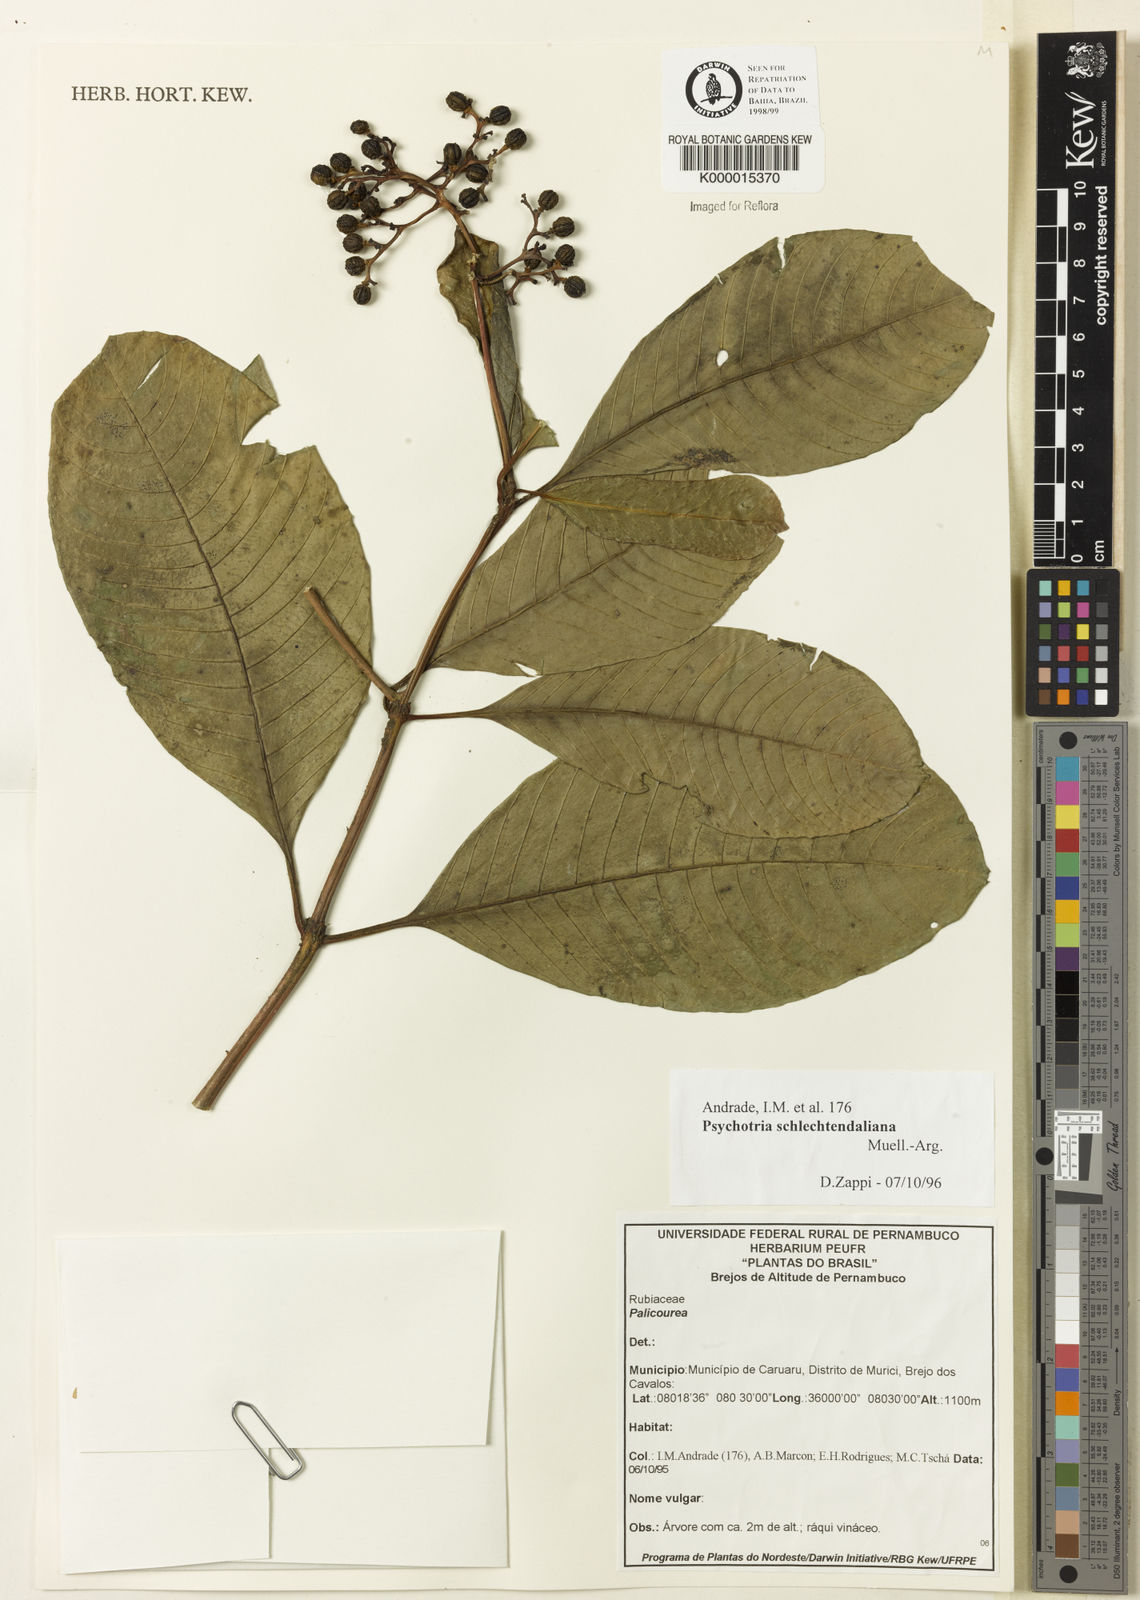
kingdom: Plantae
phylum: Tracheophyta
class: Magnoliopsida
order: Gentianales
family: Rubiaceae
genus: Palicourea
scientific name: Palicourea divaricata
